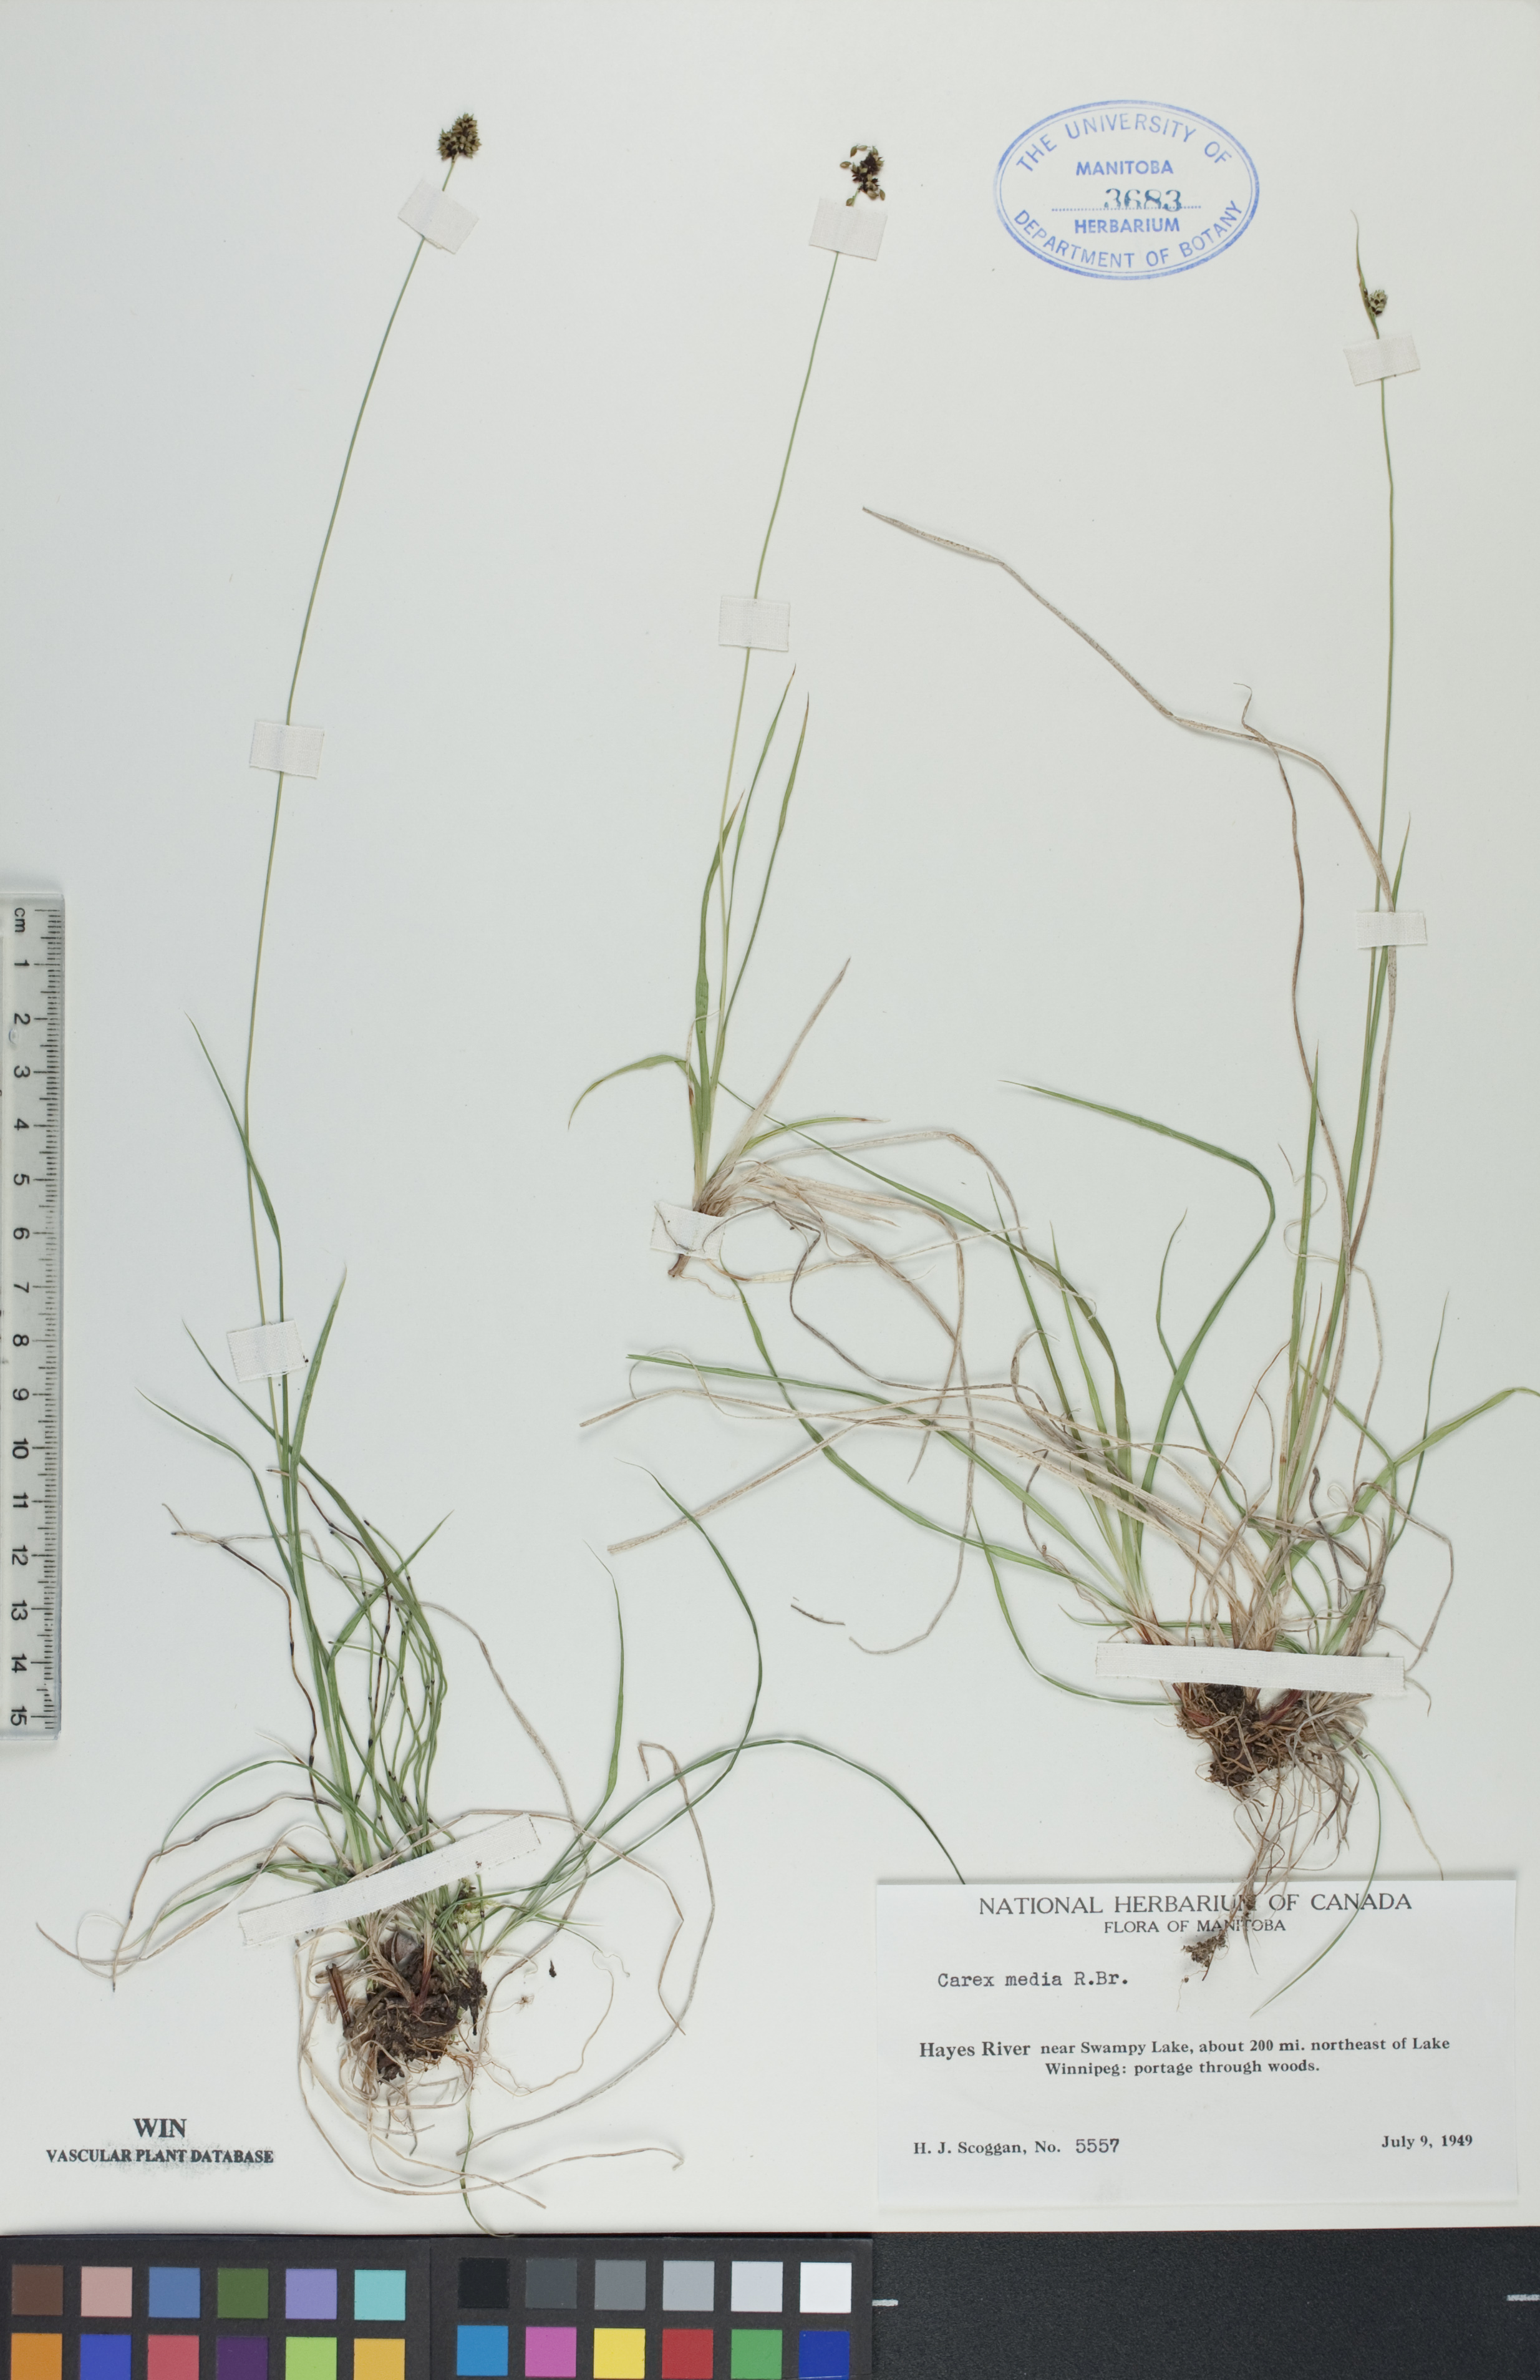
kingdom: Plantae
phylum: Tracheophyta
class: Liliopsida
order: Poales
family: Cyperaceae
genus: Carex
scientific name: Carex media
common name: Alpine sedge
